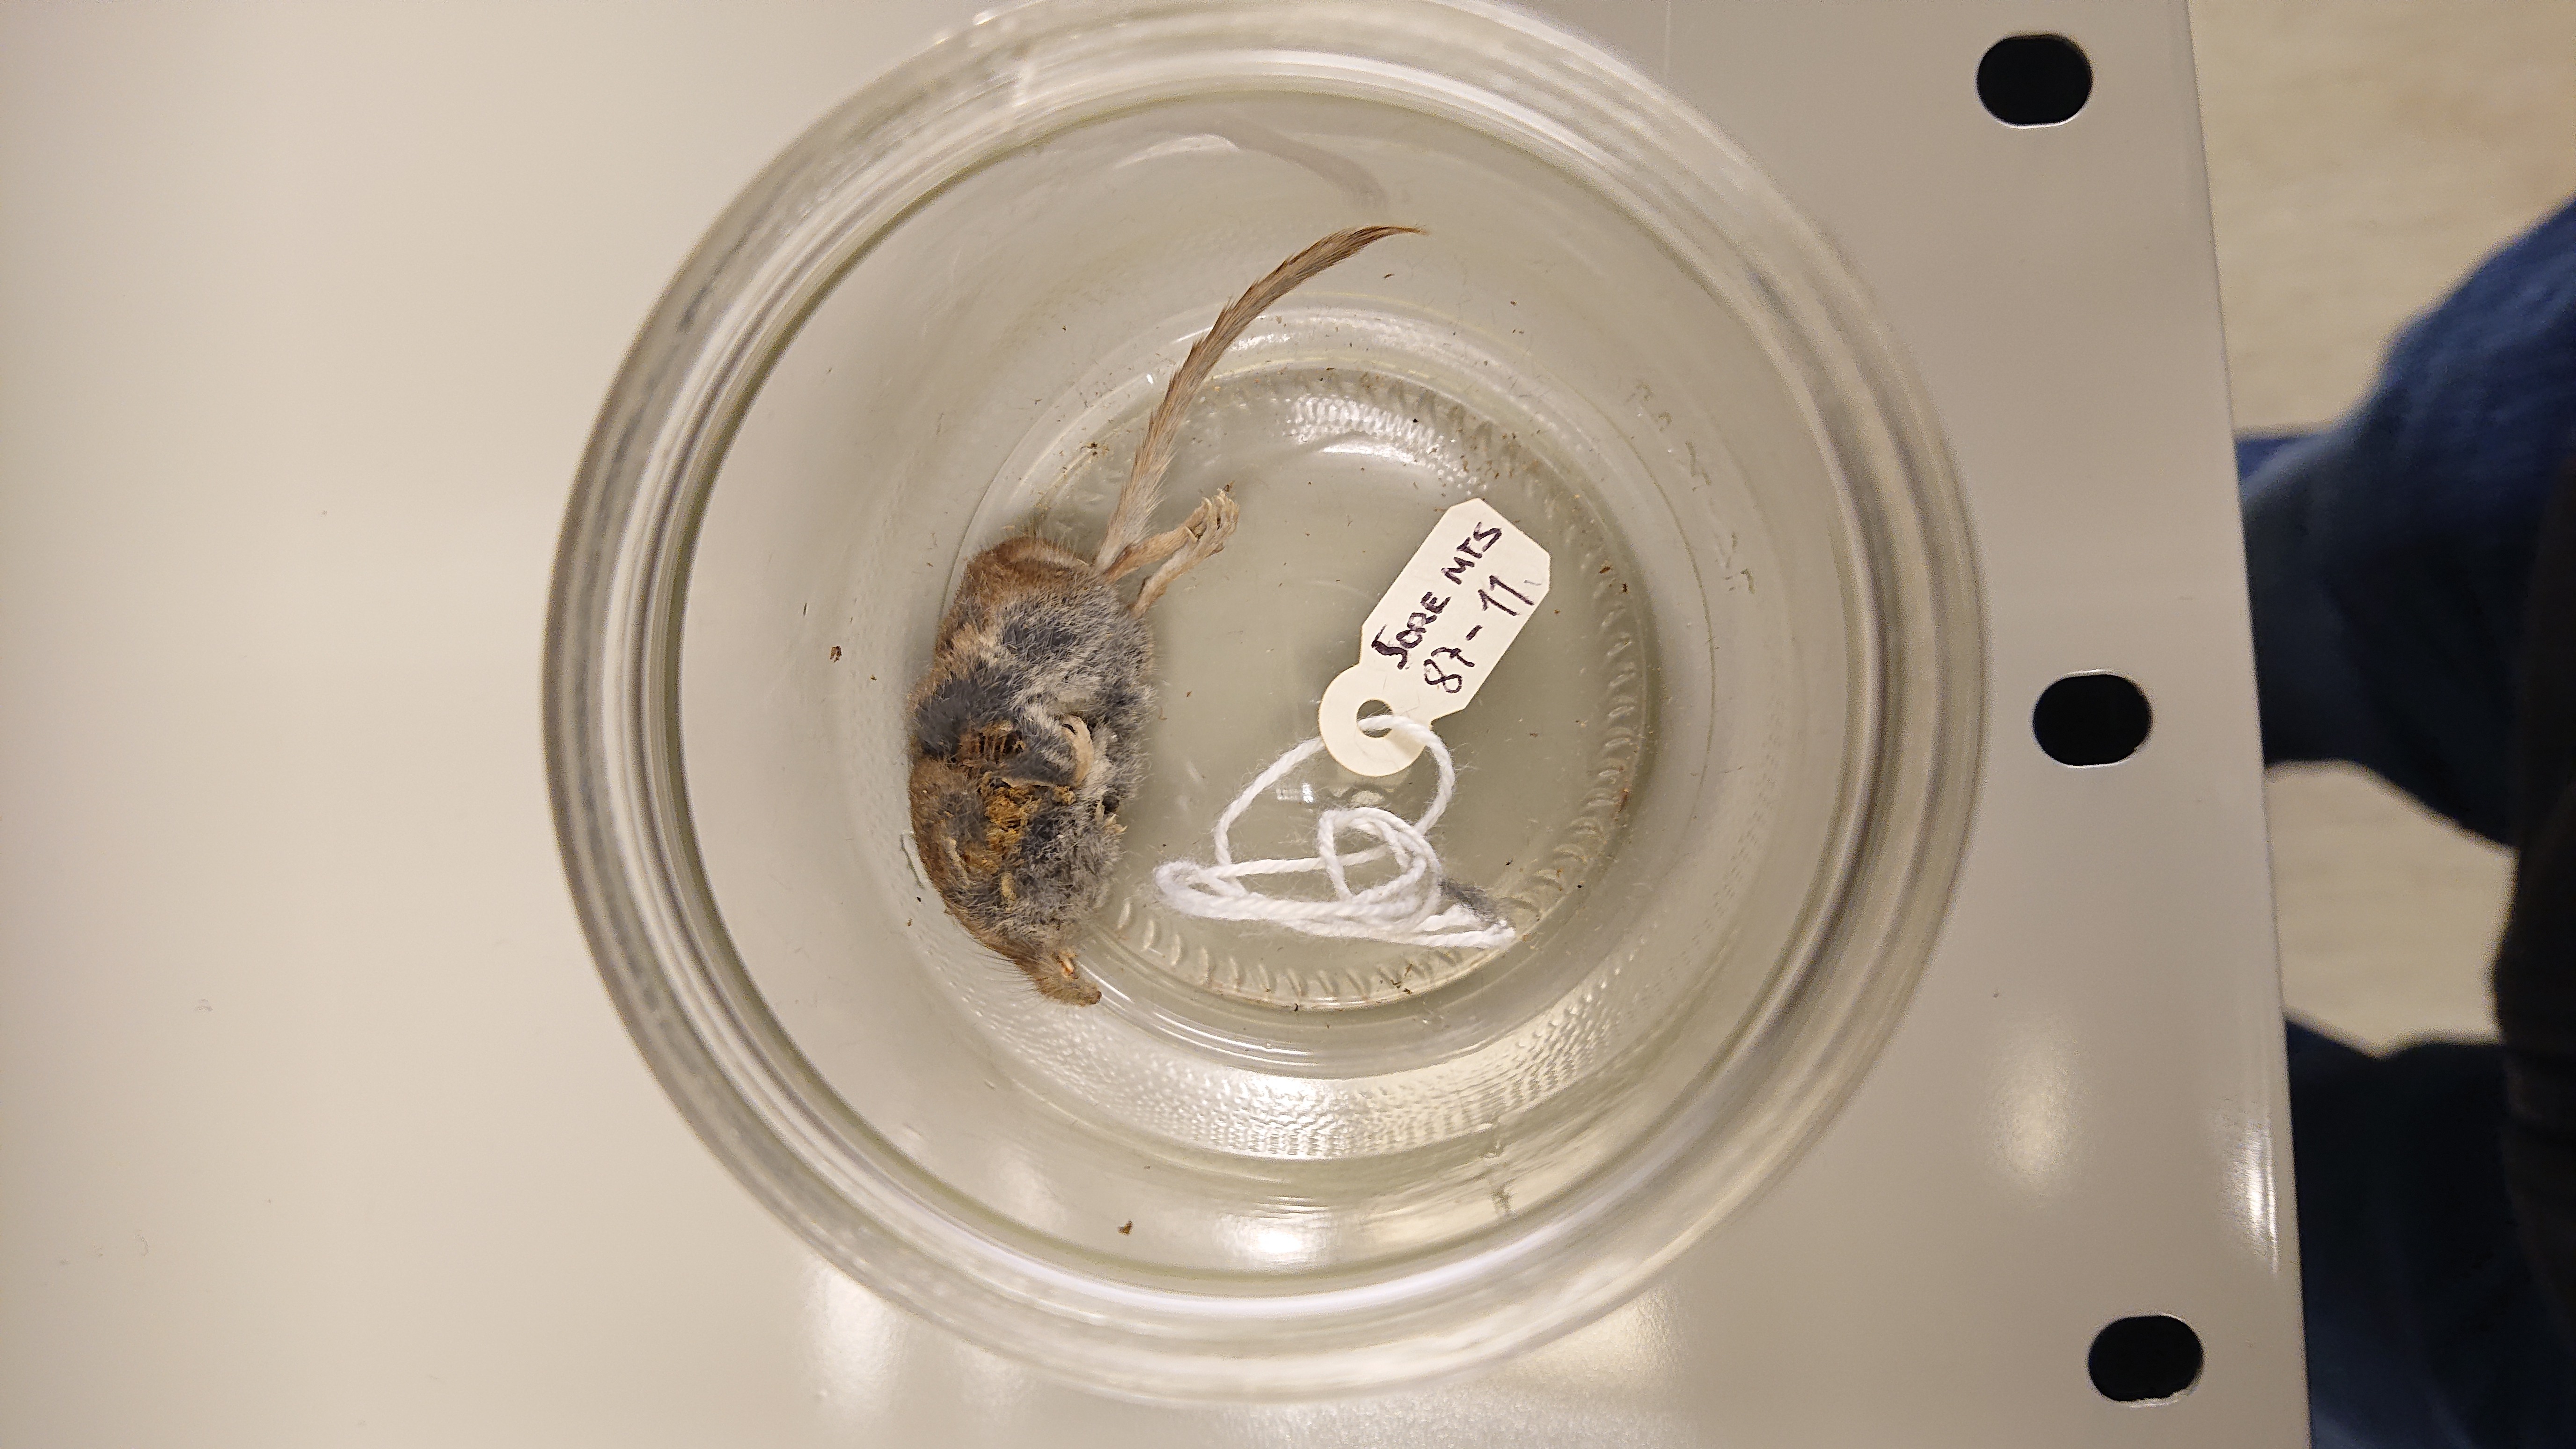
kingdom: Animalia
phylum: Chordata
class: Mammalia
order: Soricomorpha
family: Soricidae
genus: Sorex
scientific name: Sorex minutus
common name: Eurasian pygmy shrew
